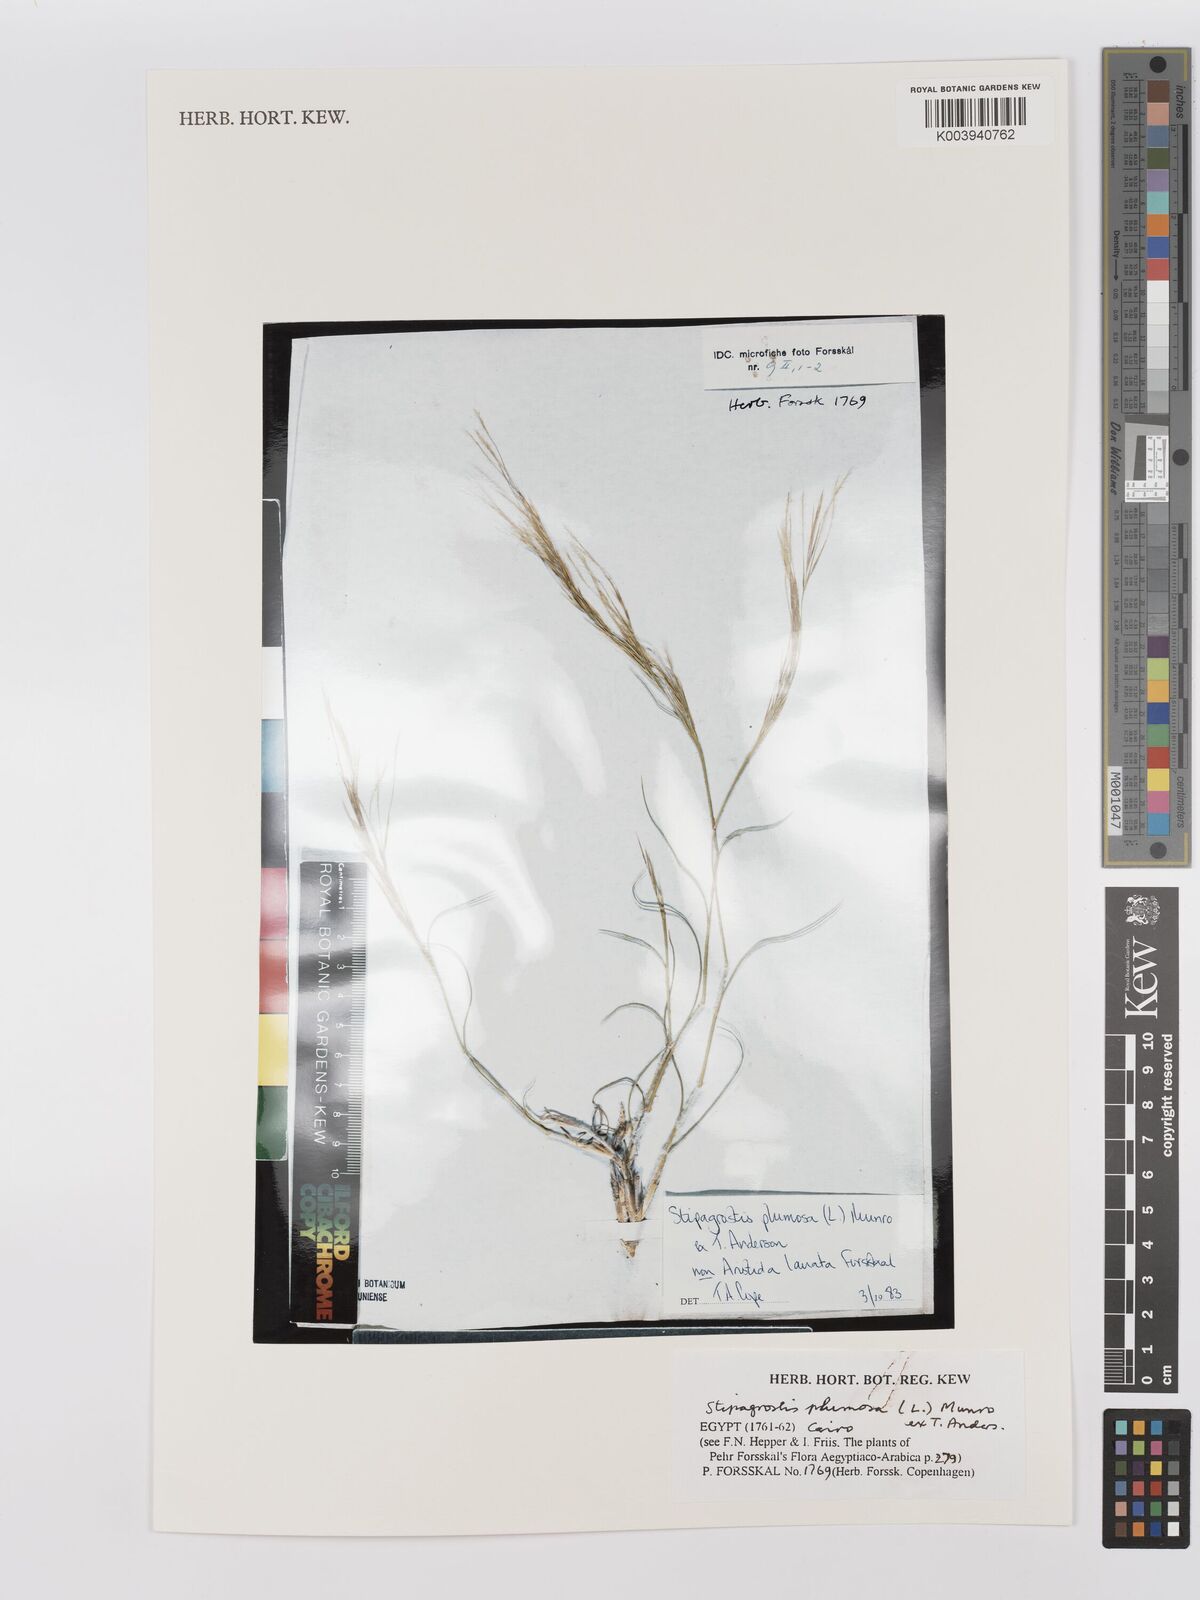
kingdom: Plantae
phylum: Tracheophyta
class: Liliopsida
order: Poales
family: Poaceae
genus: Stipagrostis
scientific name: Stipagrostis plumosa
